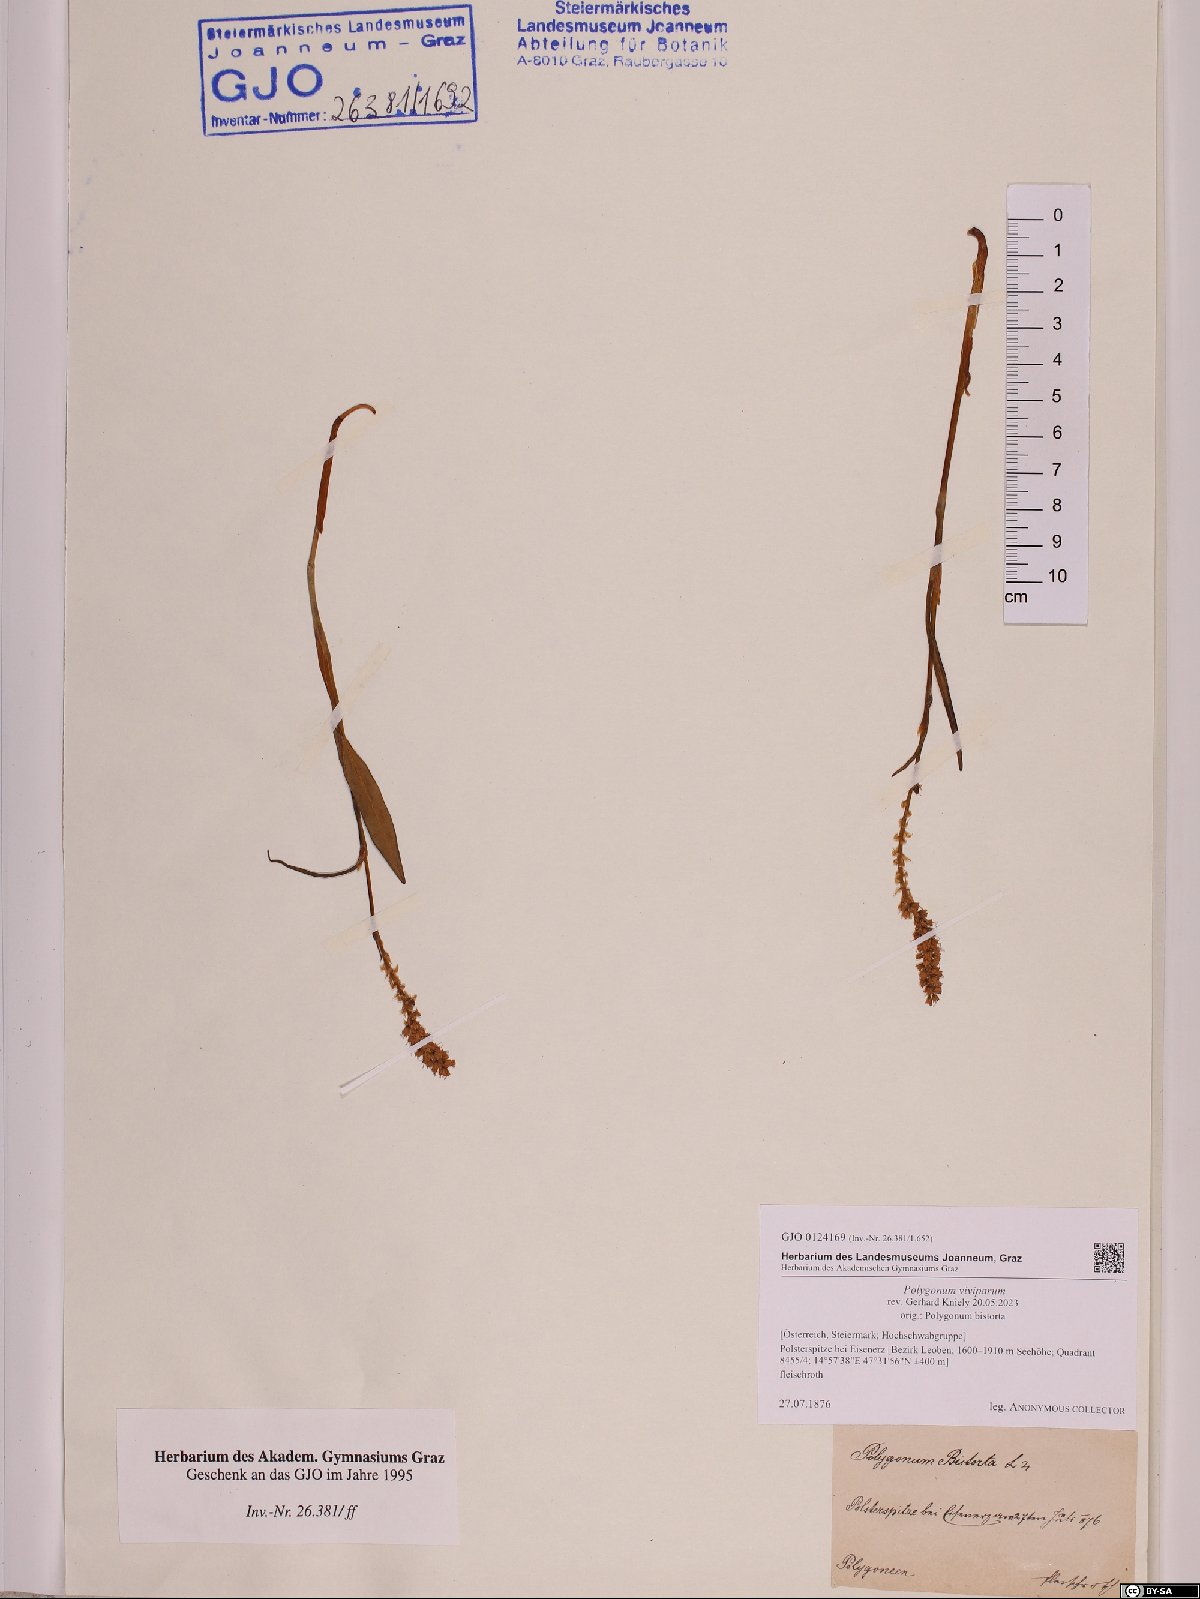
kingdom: Plantae
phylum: Tracheophyta
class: Magnoliopsida
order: Caryophyllales
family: Polygonaceae
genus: Bistorta
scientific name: Bistorta vivipara
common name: Alpine bistort
